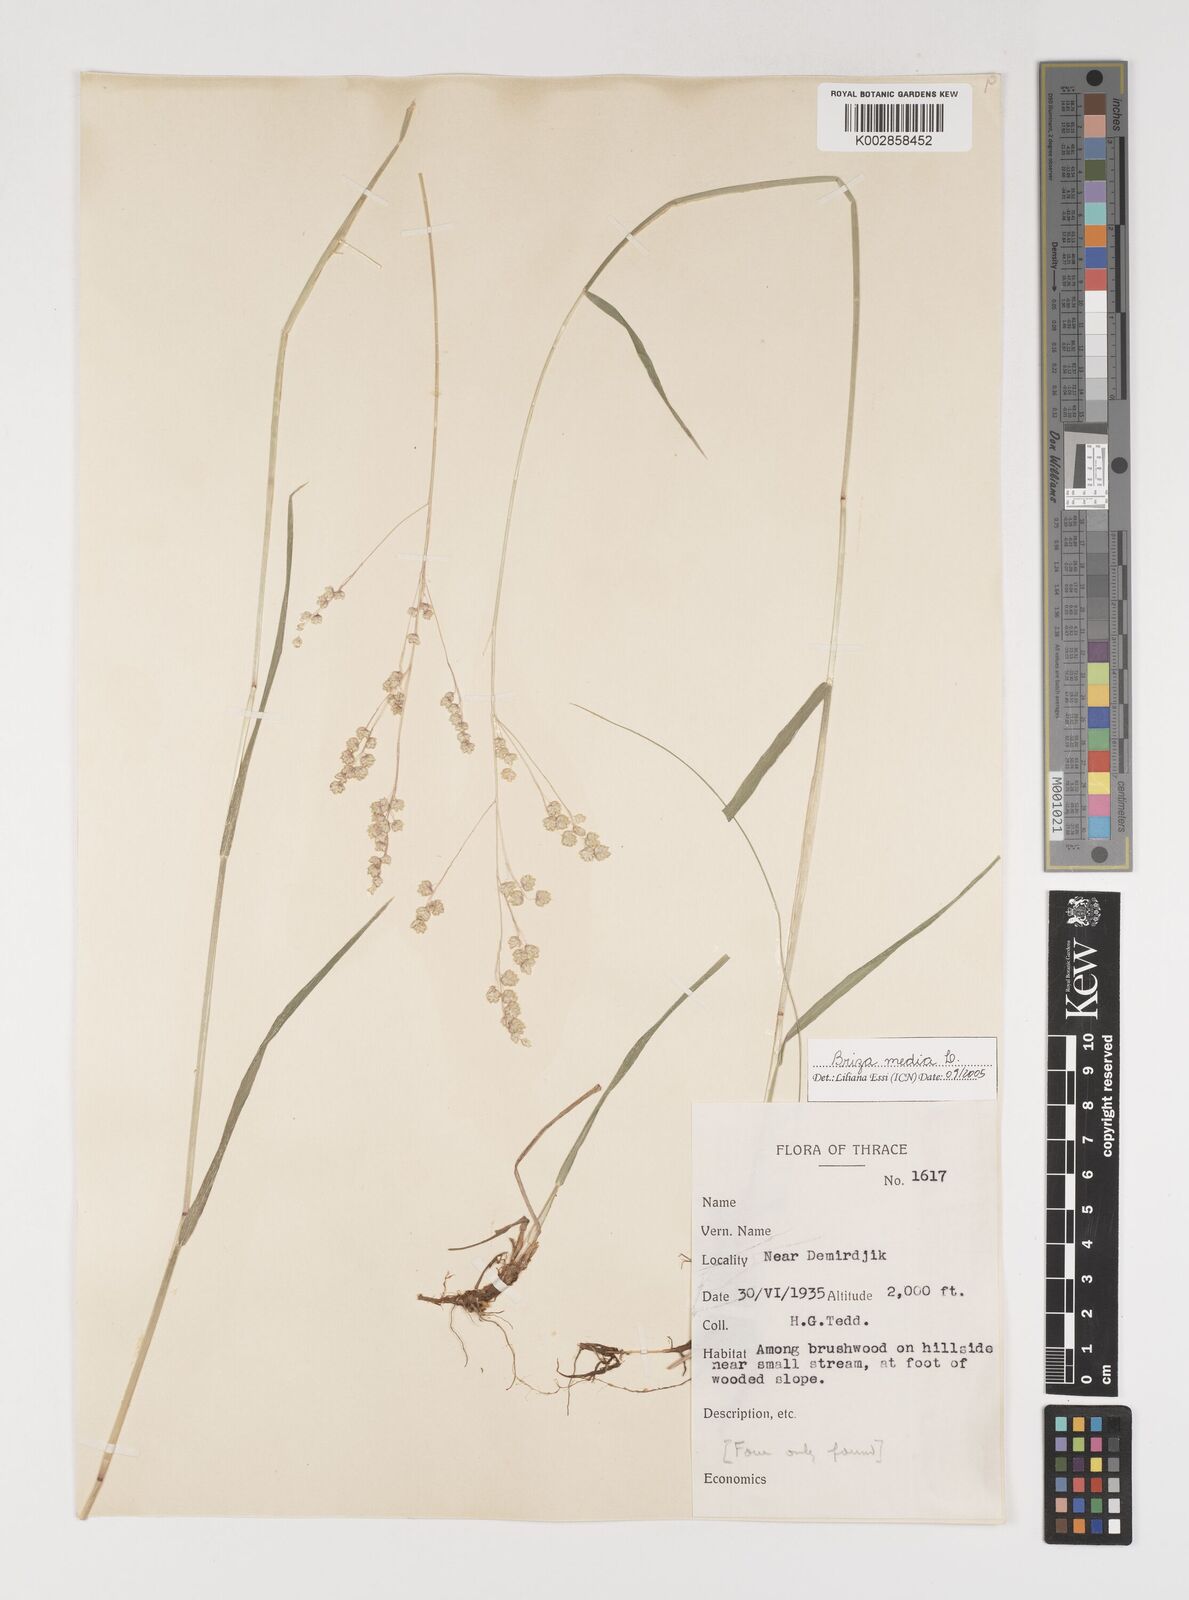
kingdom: Plantae
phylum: Tracheophyta
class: Liliopsida
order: Poales
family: Poaceae
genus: Briza
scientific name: Briza media
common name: Quaking grass
